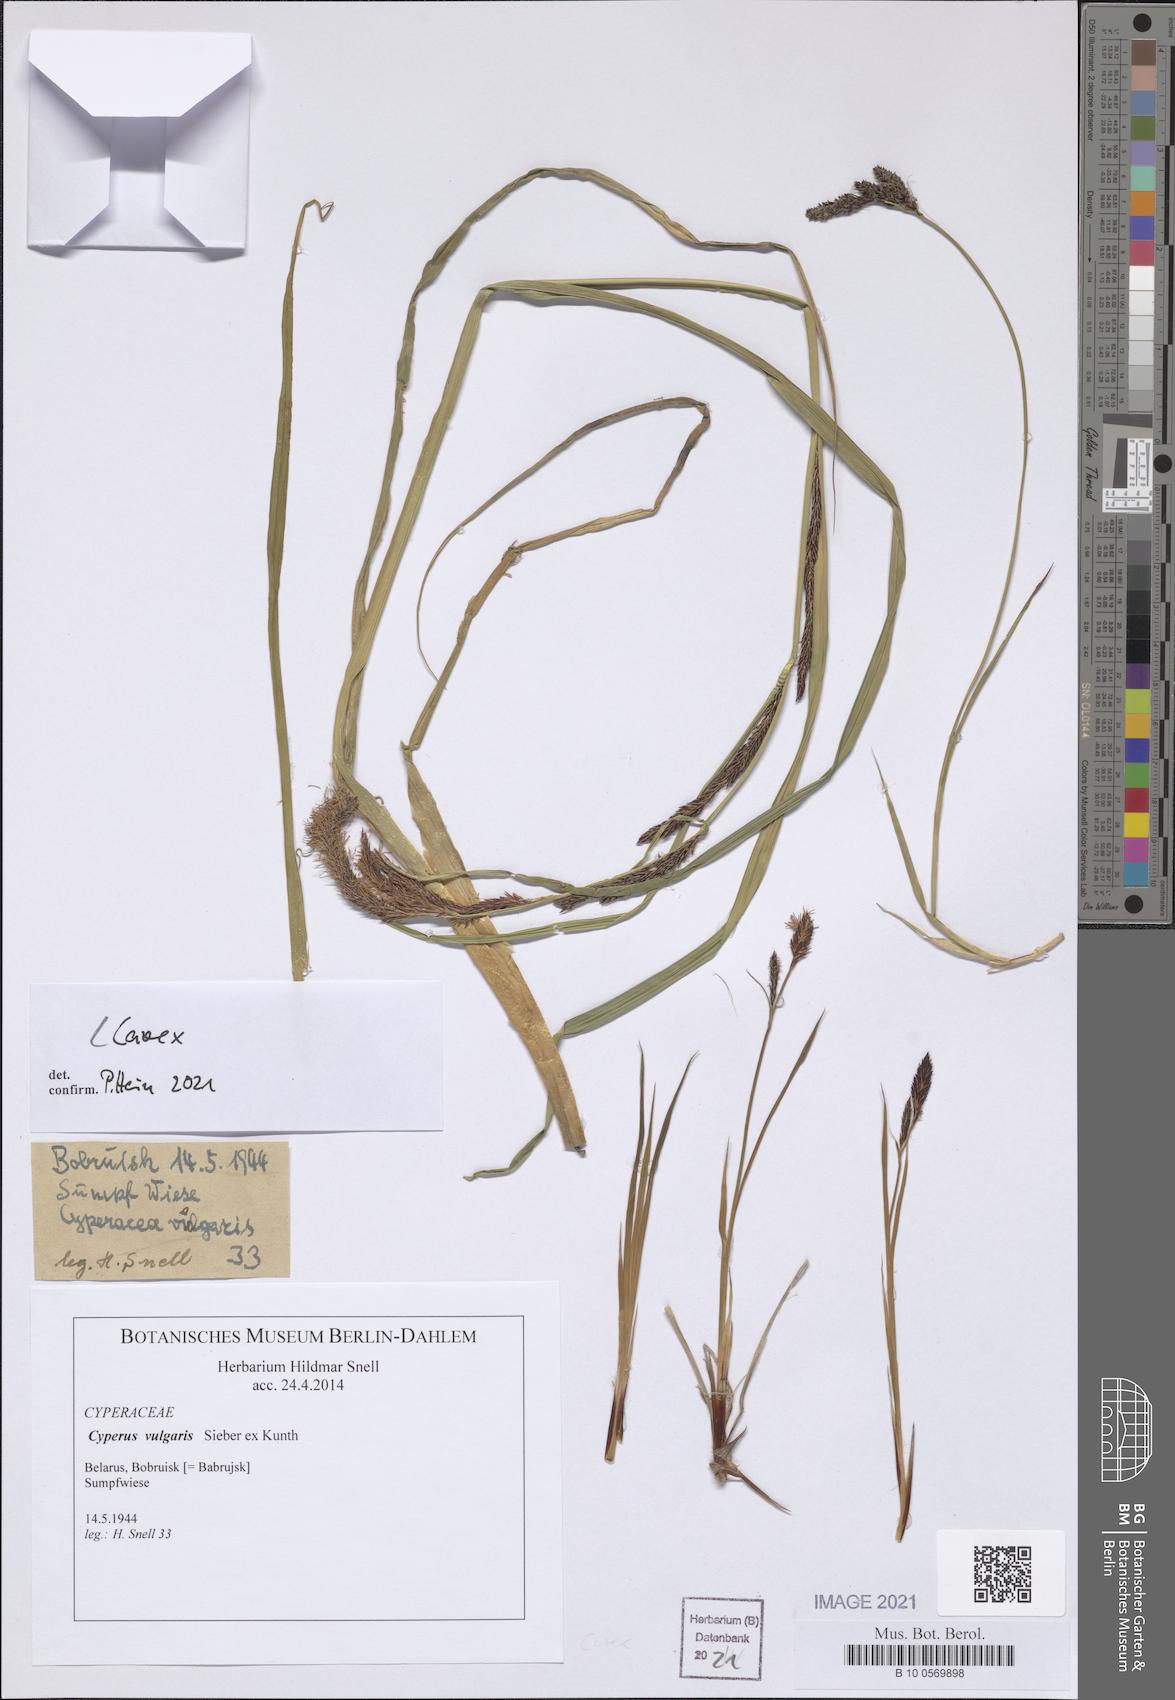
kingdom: Plantae
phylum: Tracheophyta
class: Liliopsida
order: Poales
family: Cyperaceae
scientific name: Cyperaceae
